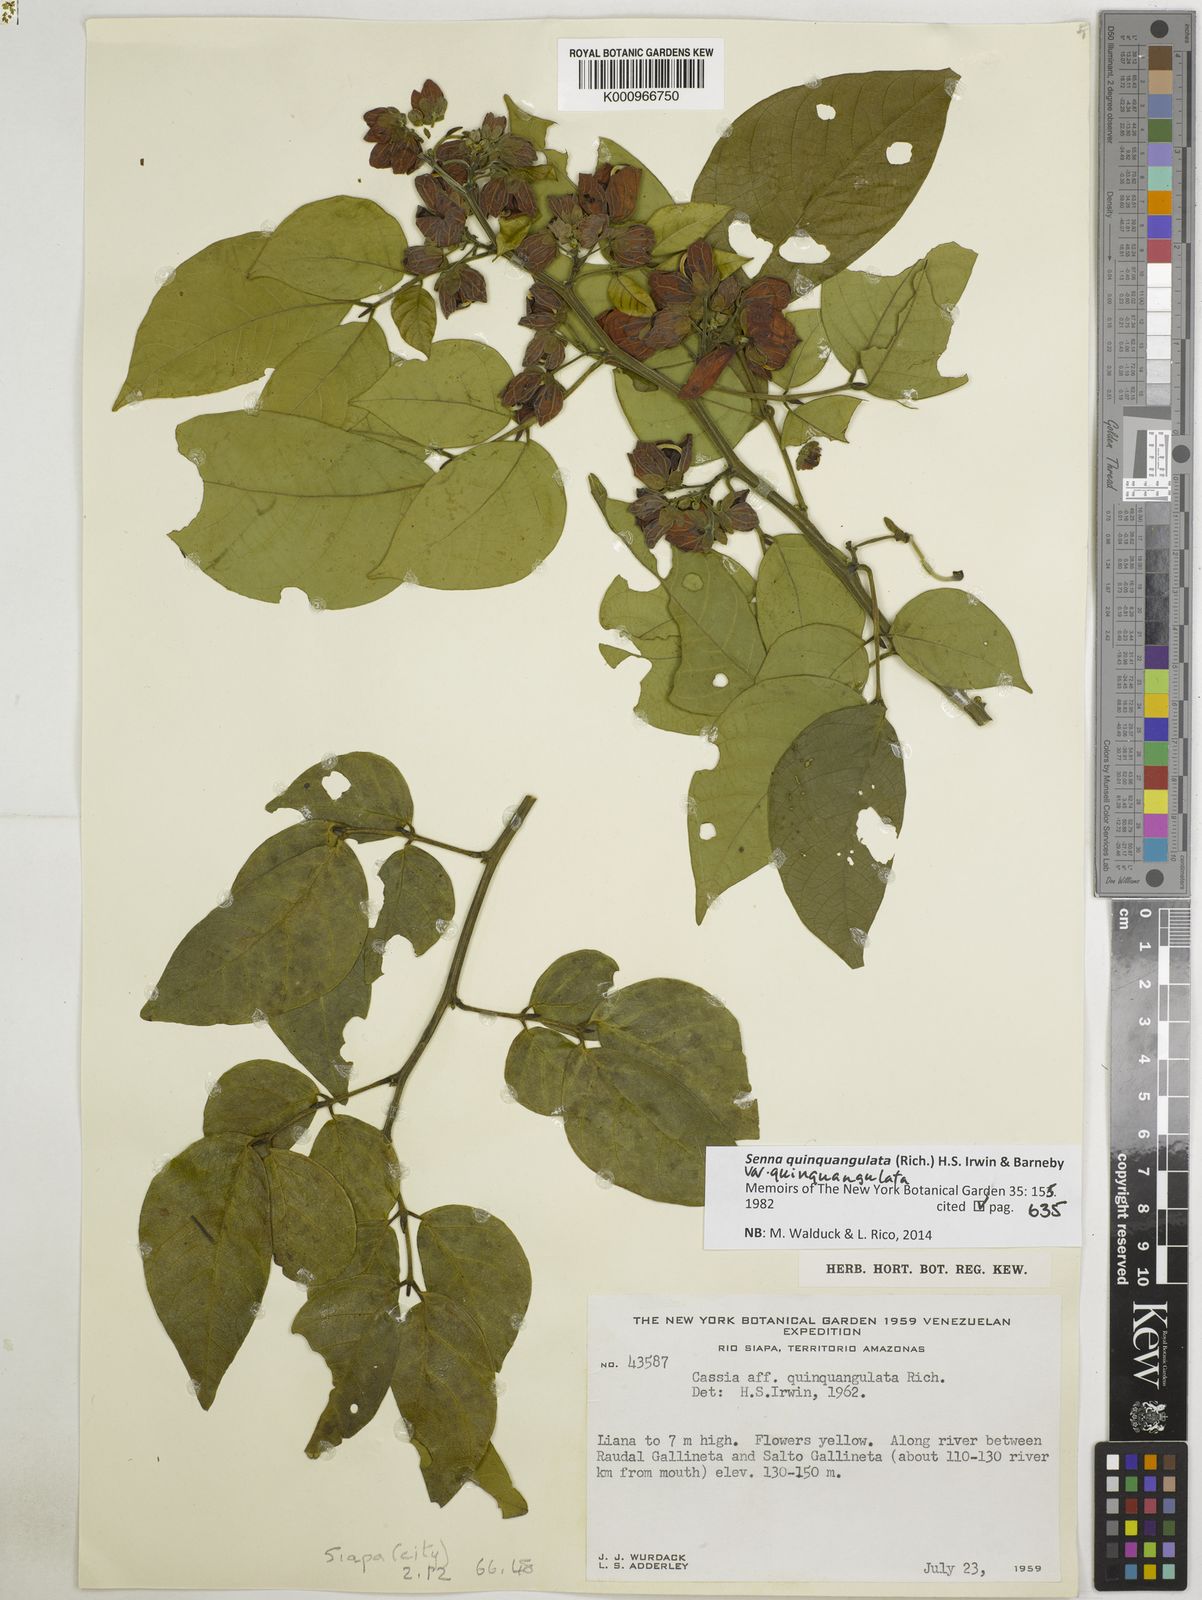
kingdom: Plantae
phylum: Tracheophyta
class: Magnoliopsida
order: Fabales
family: Fabaceae
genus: Senna
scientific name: Senna quinquangulata
